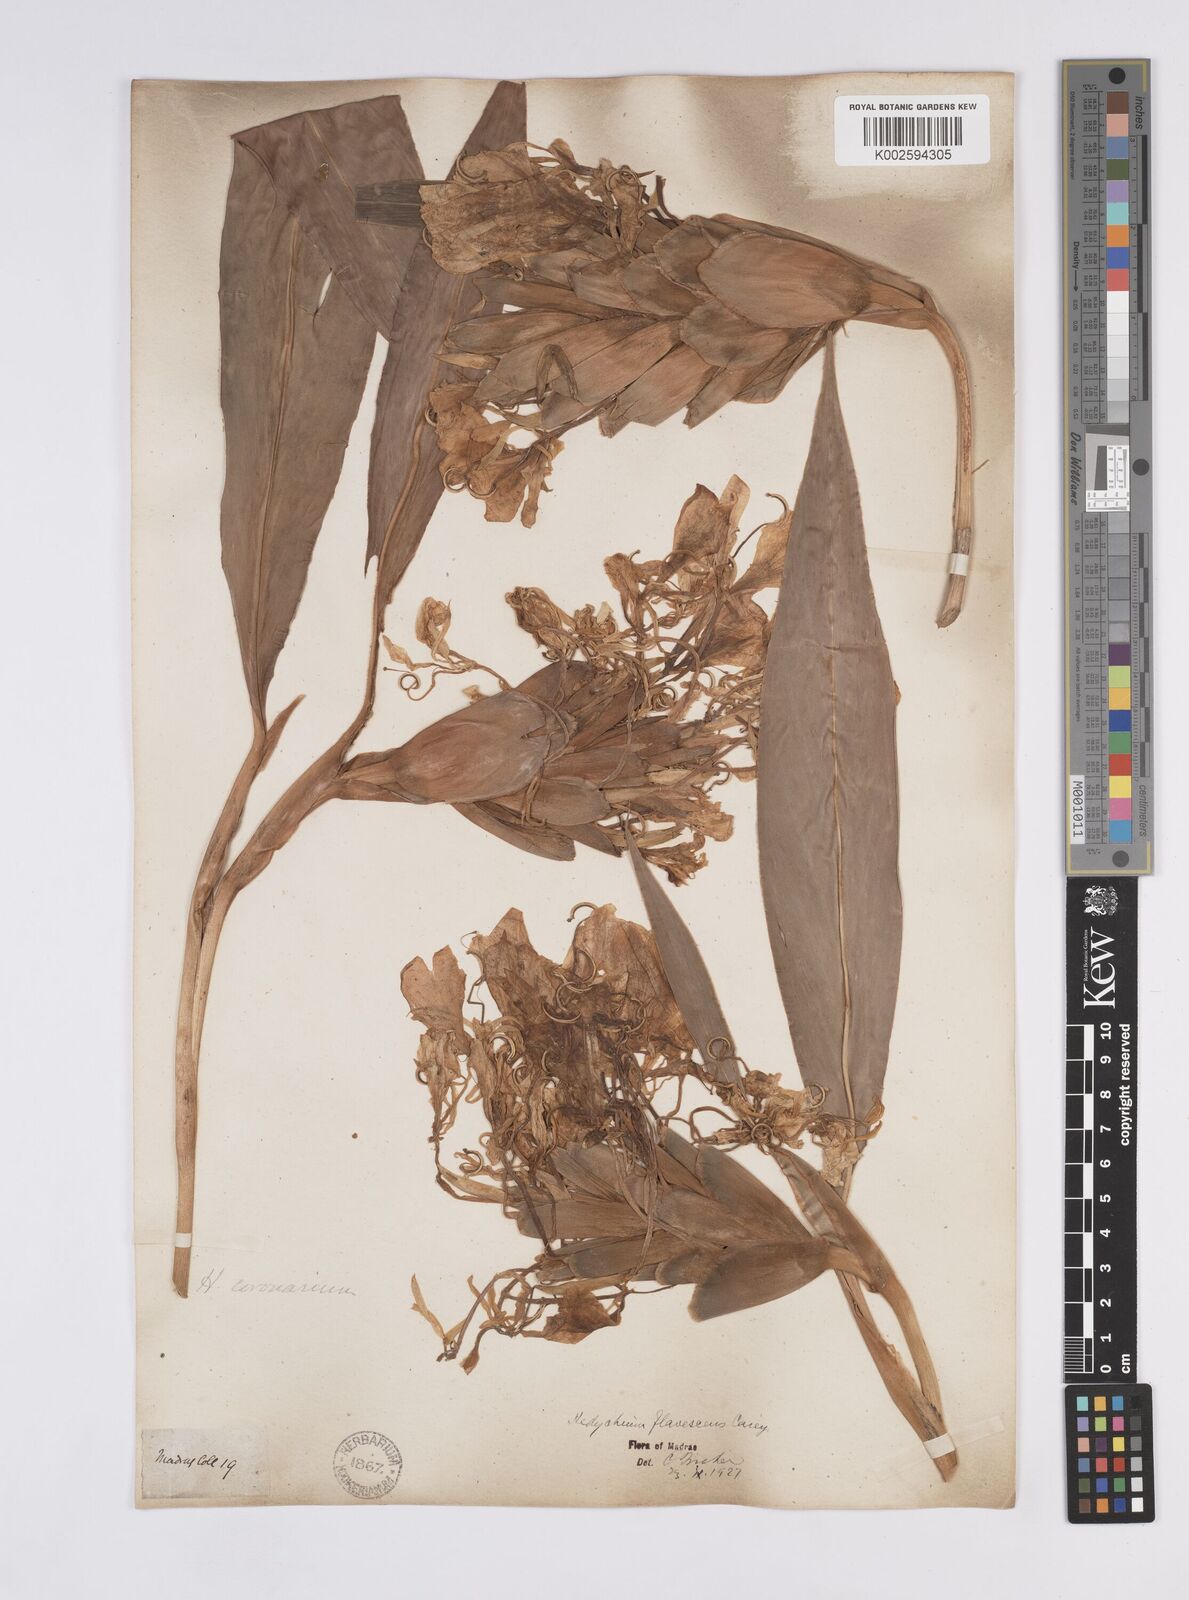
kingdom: Plantae
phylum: Tracheophyta
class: Liliopsida
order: Zingiberales
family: Zingiberaceae
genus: Hedychium
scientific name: Hedychium flavescens
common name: Yellow ginger
